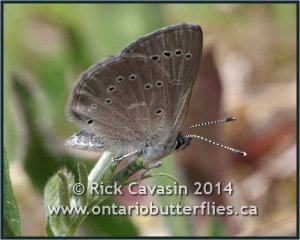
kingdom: Animalia
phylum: Arthropoda
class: Insecta
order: Lepidoptera
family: Lycaenidae
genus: Glaucopsyche
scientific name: Glaucopsyche lygdamus
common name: Silvery Blue
